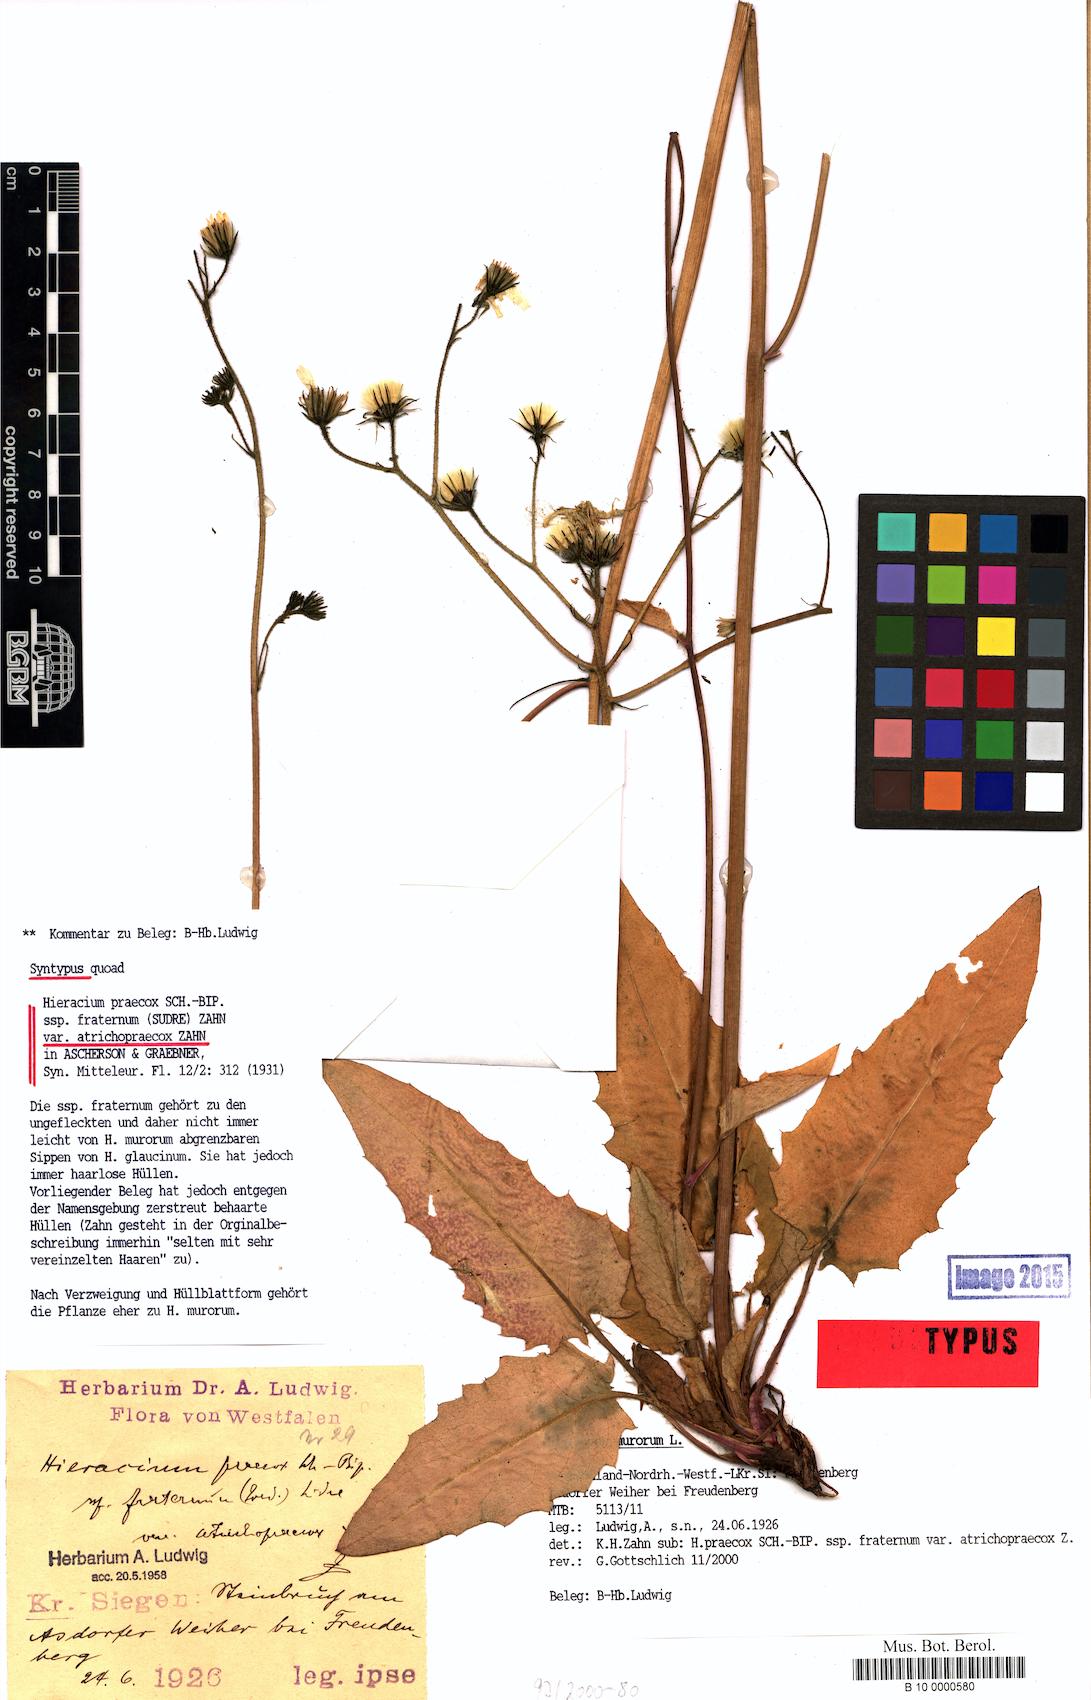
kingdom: Plantae
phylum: Tracheophyta
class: Magnoliopsida
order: Asterales
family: Asteraceae
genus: Hieracium
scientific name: Hieracium praecox
